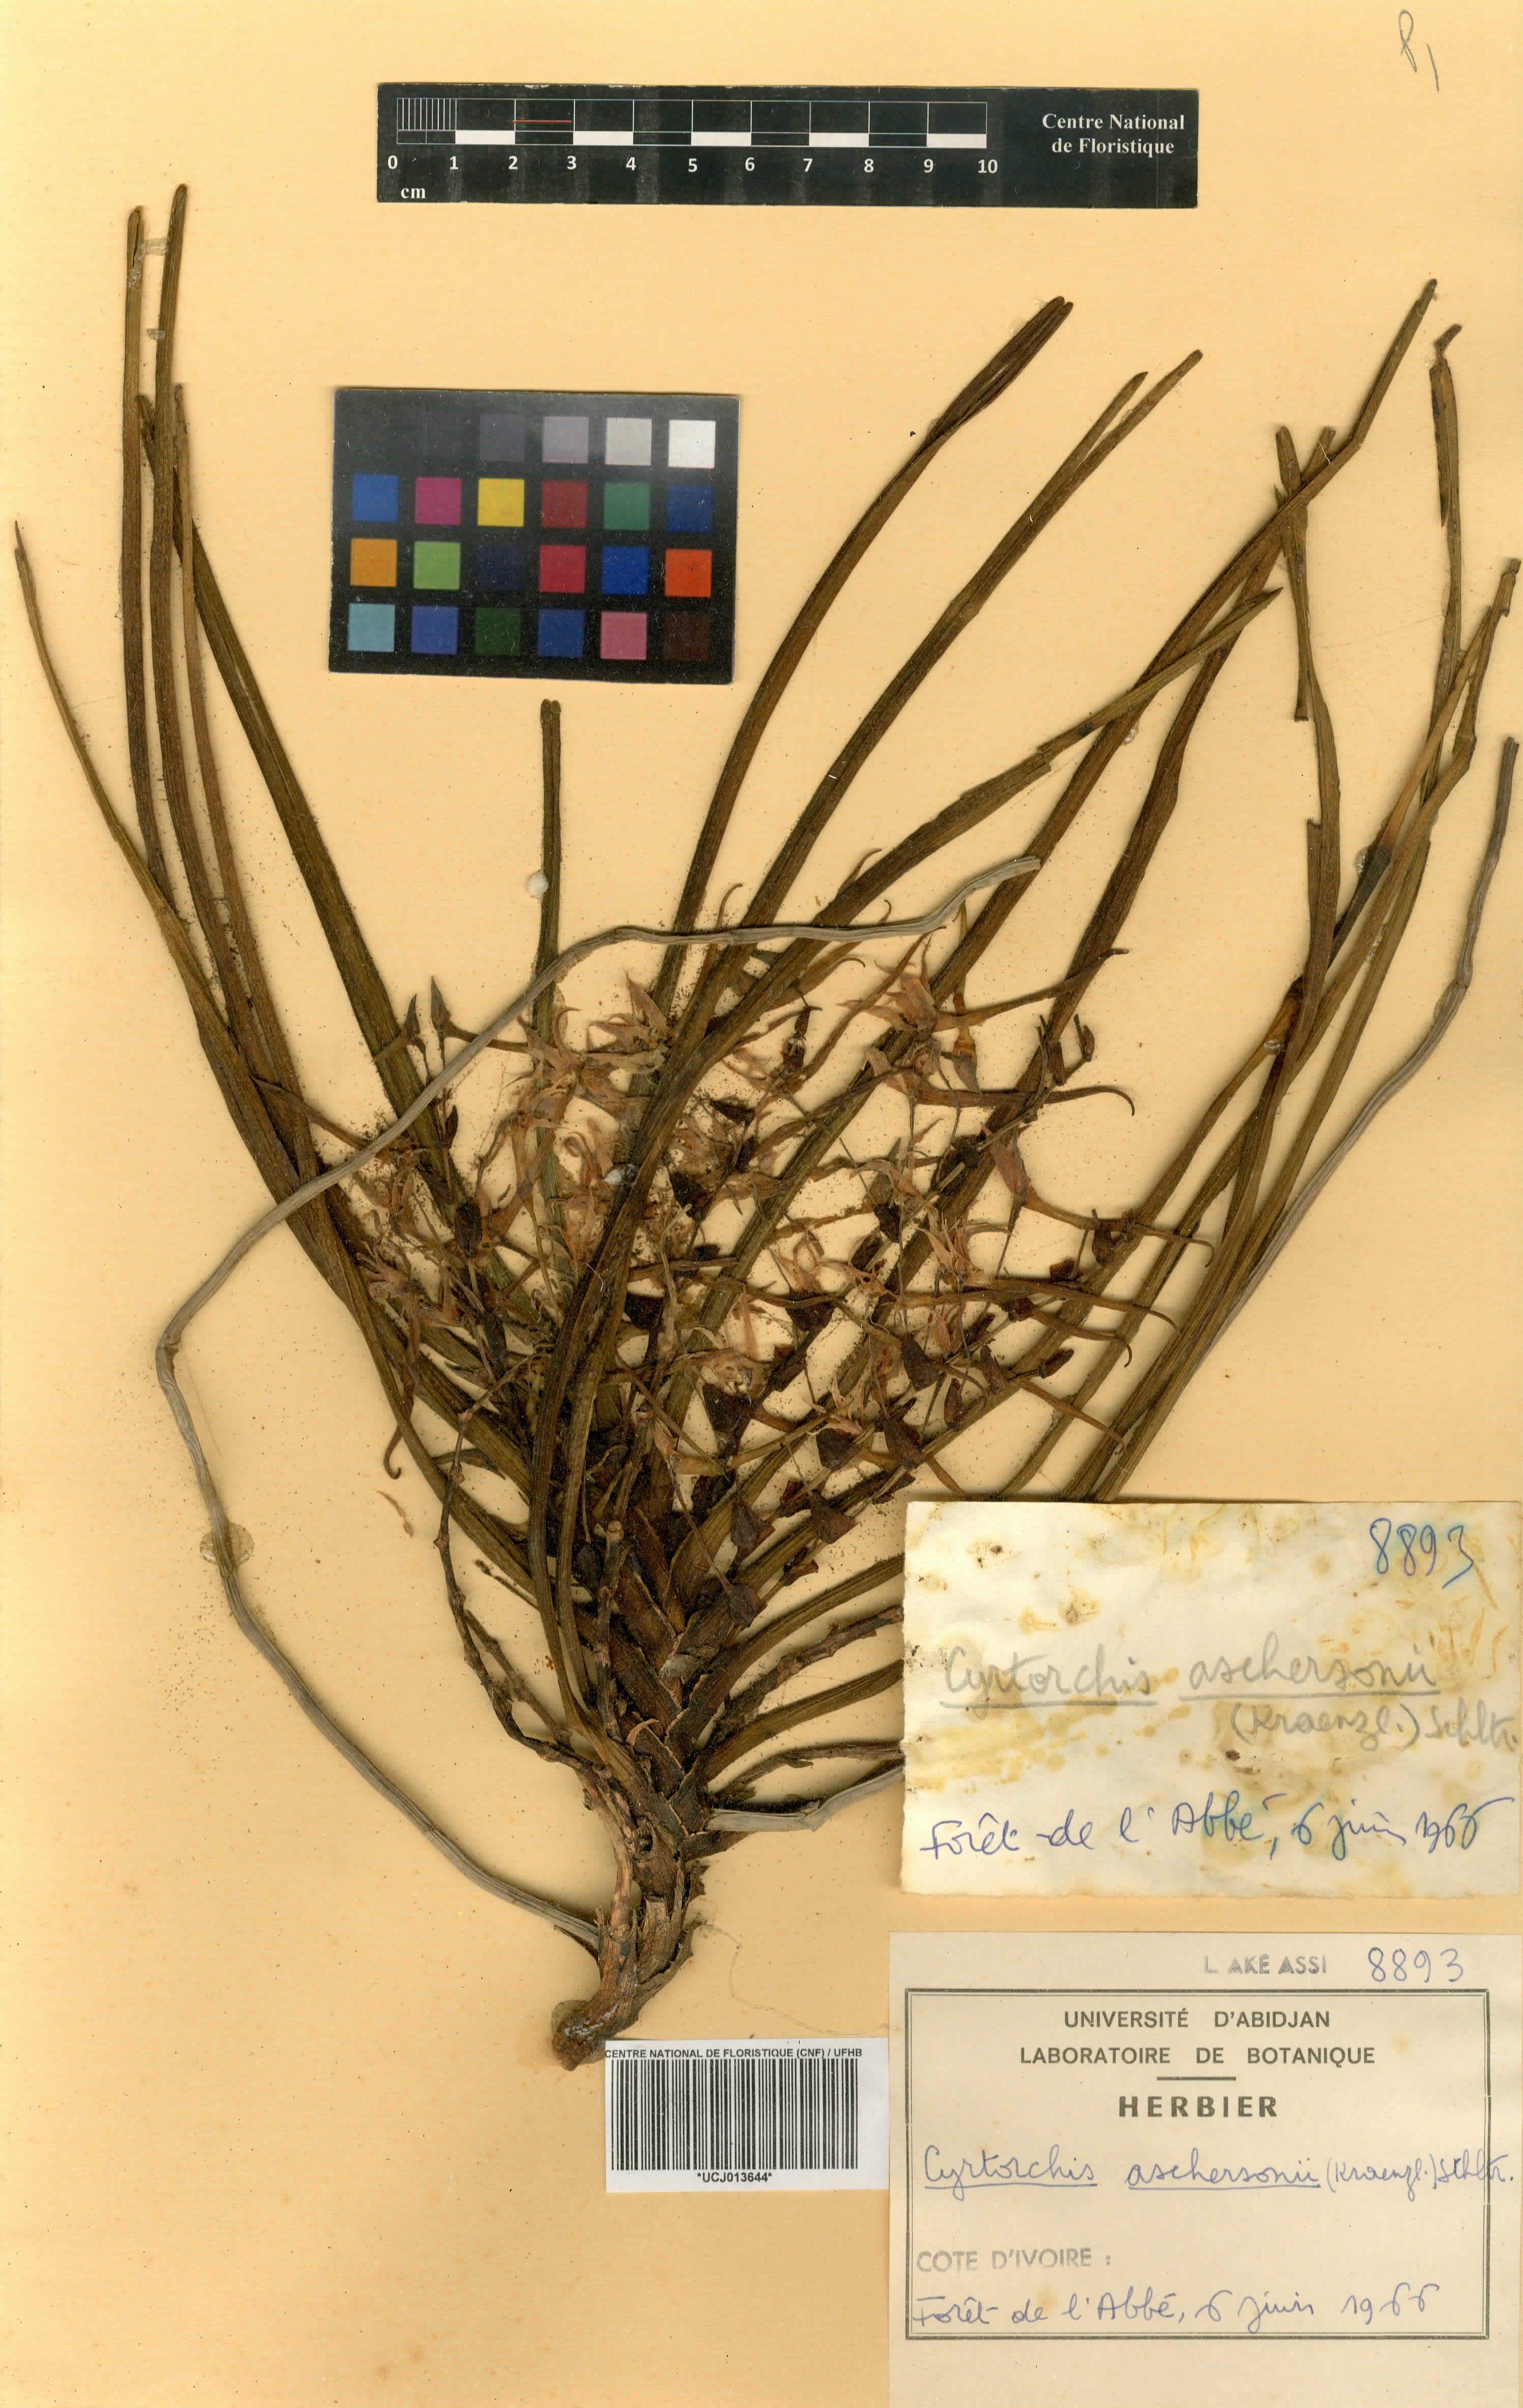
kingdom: Plantae
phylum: Tracheophyta
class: Liliopsida
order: Asparagales
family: Orchidaceae
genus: Cyrtorchis
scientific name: Cyrtorchis aschersonii
